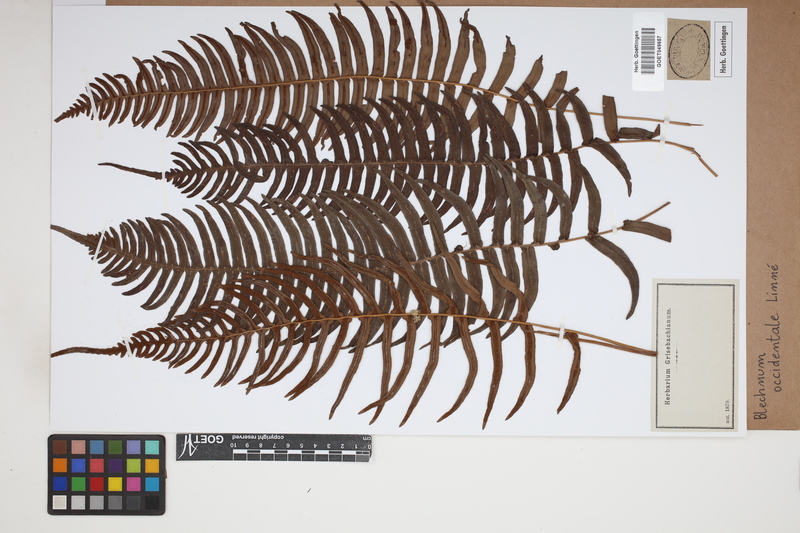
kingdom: Plantae
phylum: Tracheophyta
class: Polypodiopsida
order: Polypodiales
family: Blechnaceae
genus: Blechnum
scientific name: Blechnum occidentale
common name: Hammock fern
